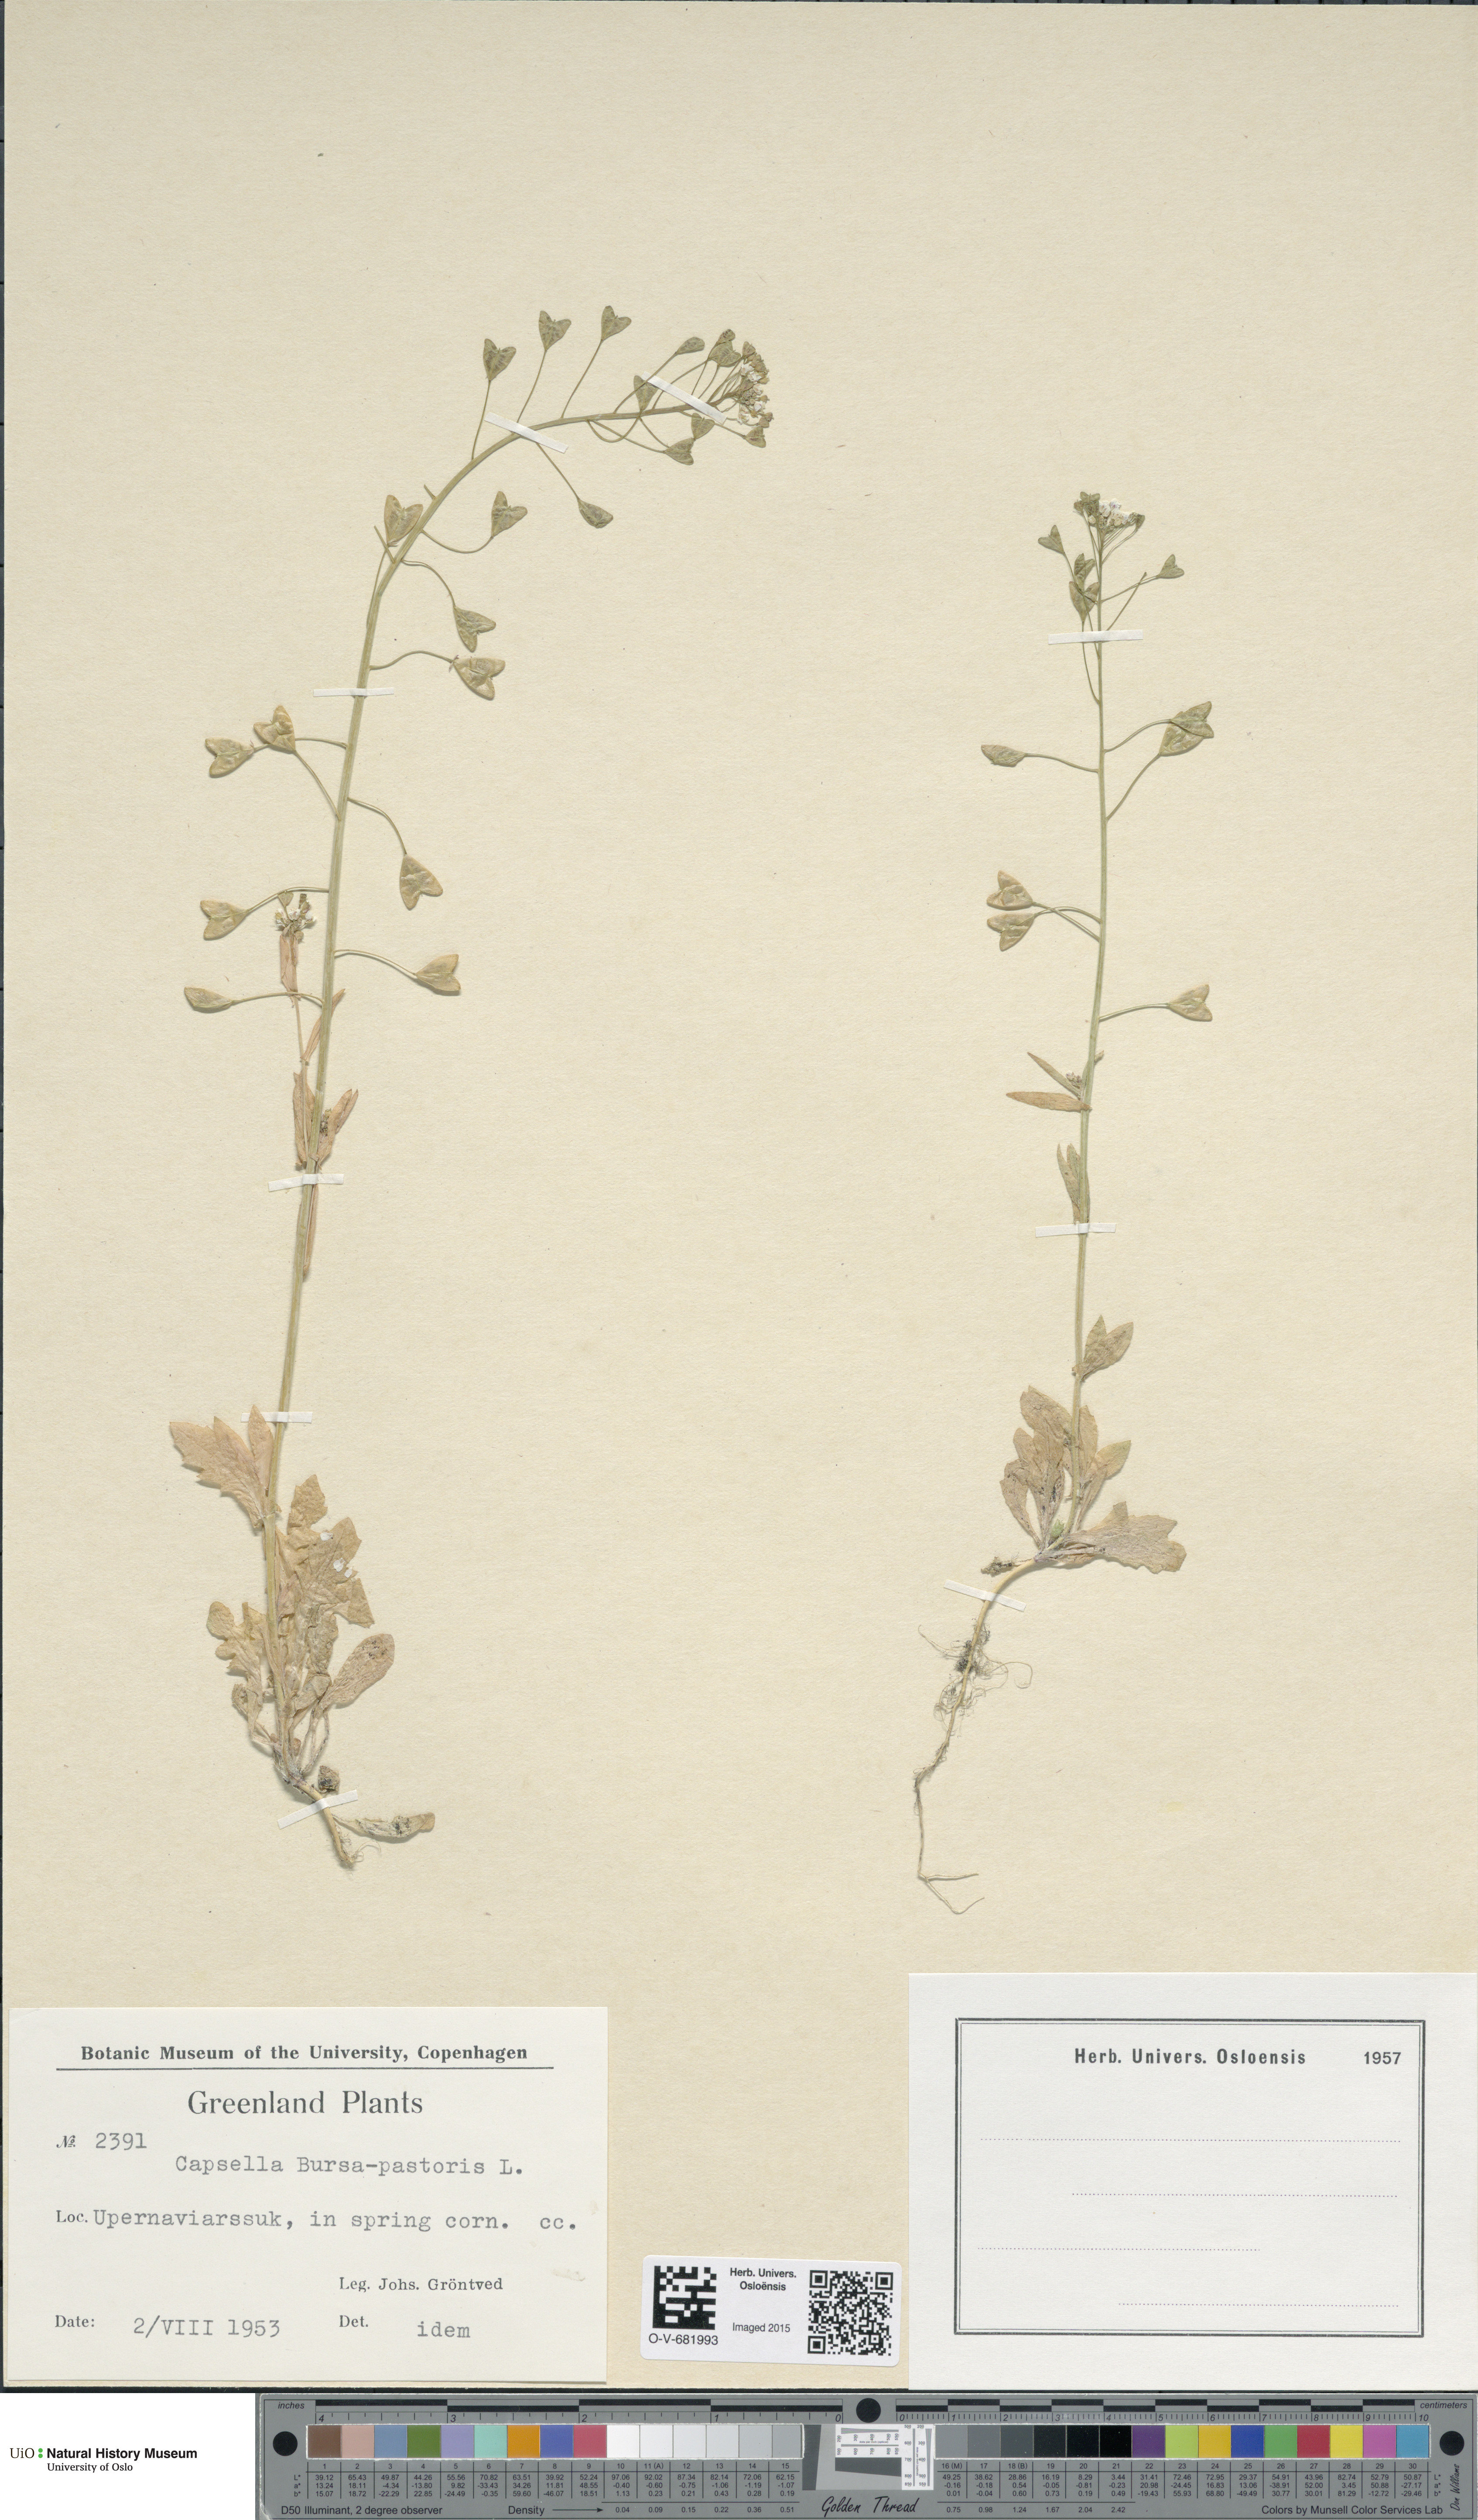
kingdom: Plantae
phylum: Tracheophyta
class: Magnoliopsida
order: Brassicales
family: Brassicaceae
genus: Capsella
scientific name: Capsella bursa-pastoris
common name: Shepherd's purse
